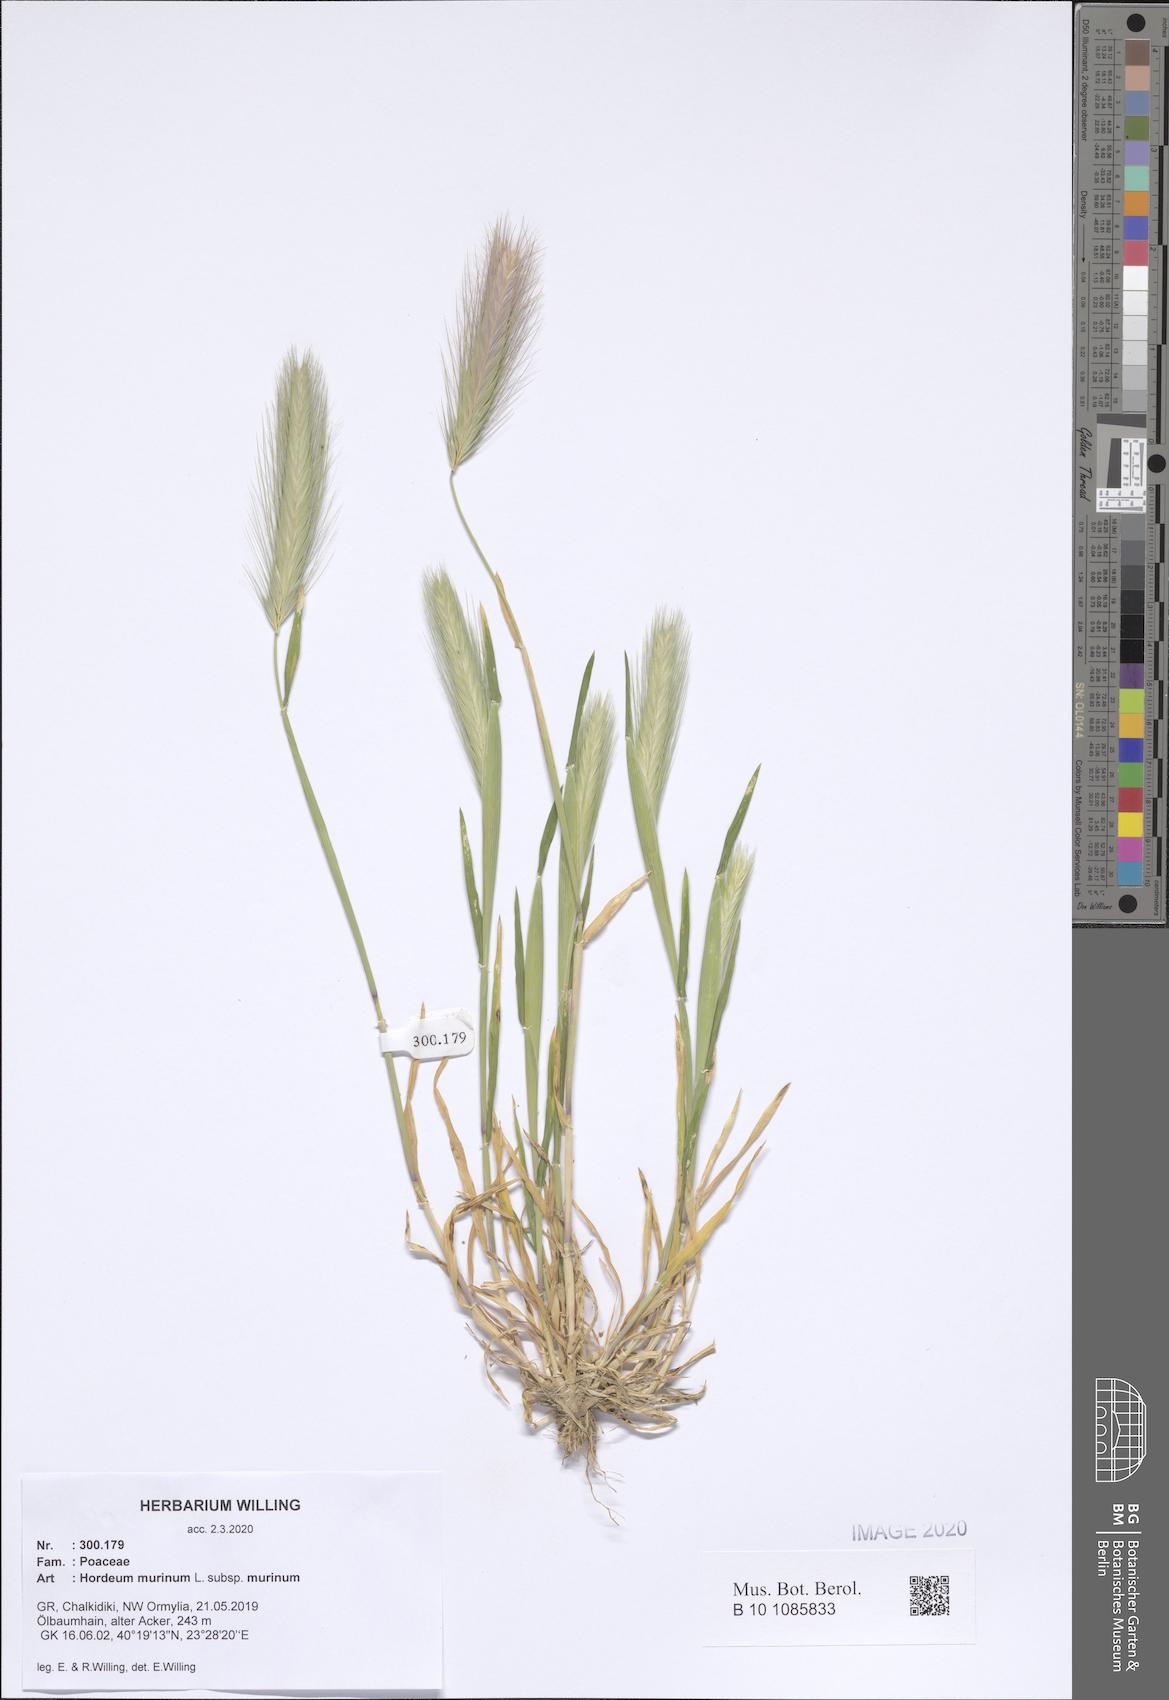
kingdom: Plantae
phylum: Tracheophyta
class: Liliopsida
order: Poales
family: Poaceae
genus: Hordeum
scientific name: Hordeum murinum
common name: Wall barley
